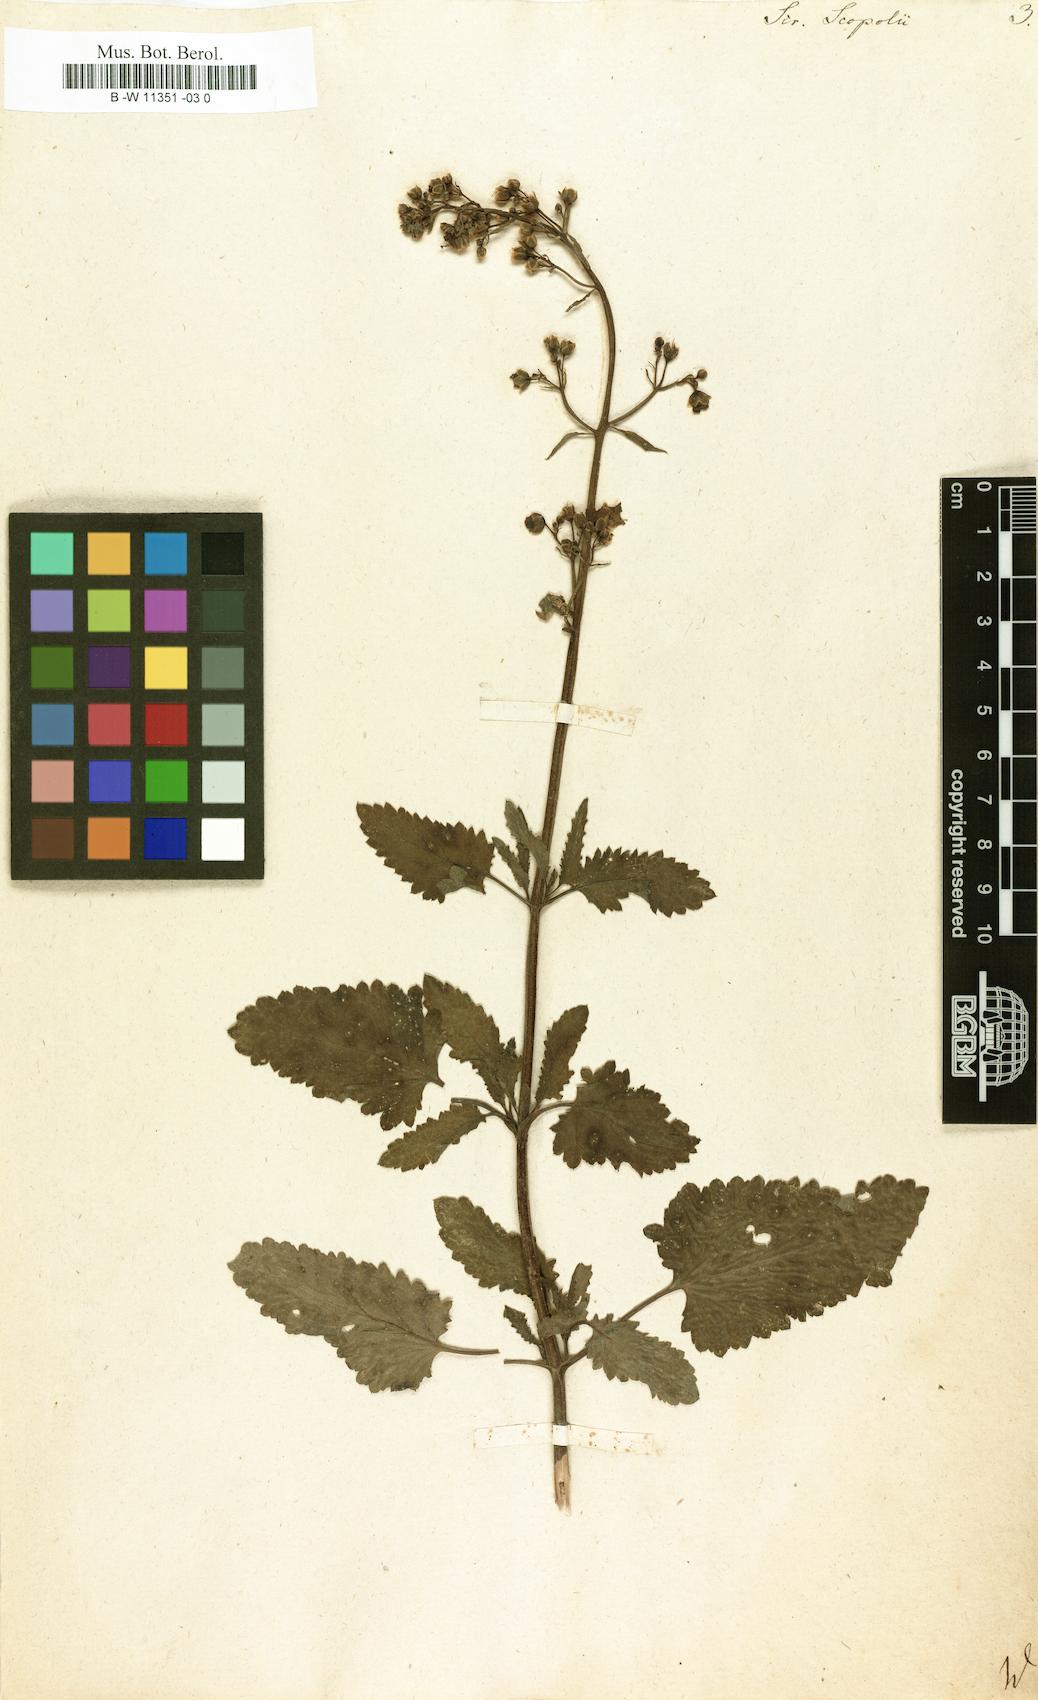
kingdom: Plantae
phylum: Tracheophyta
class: Magnoliopsida
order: Lamiales
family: Scrophulariaceae
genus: Scrophularia
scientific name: Scrophularia scopolii
